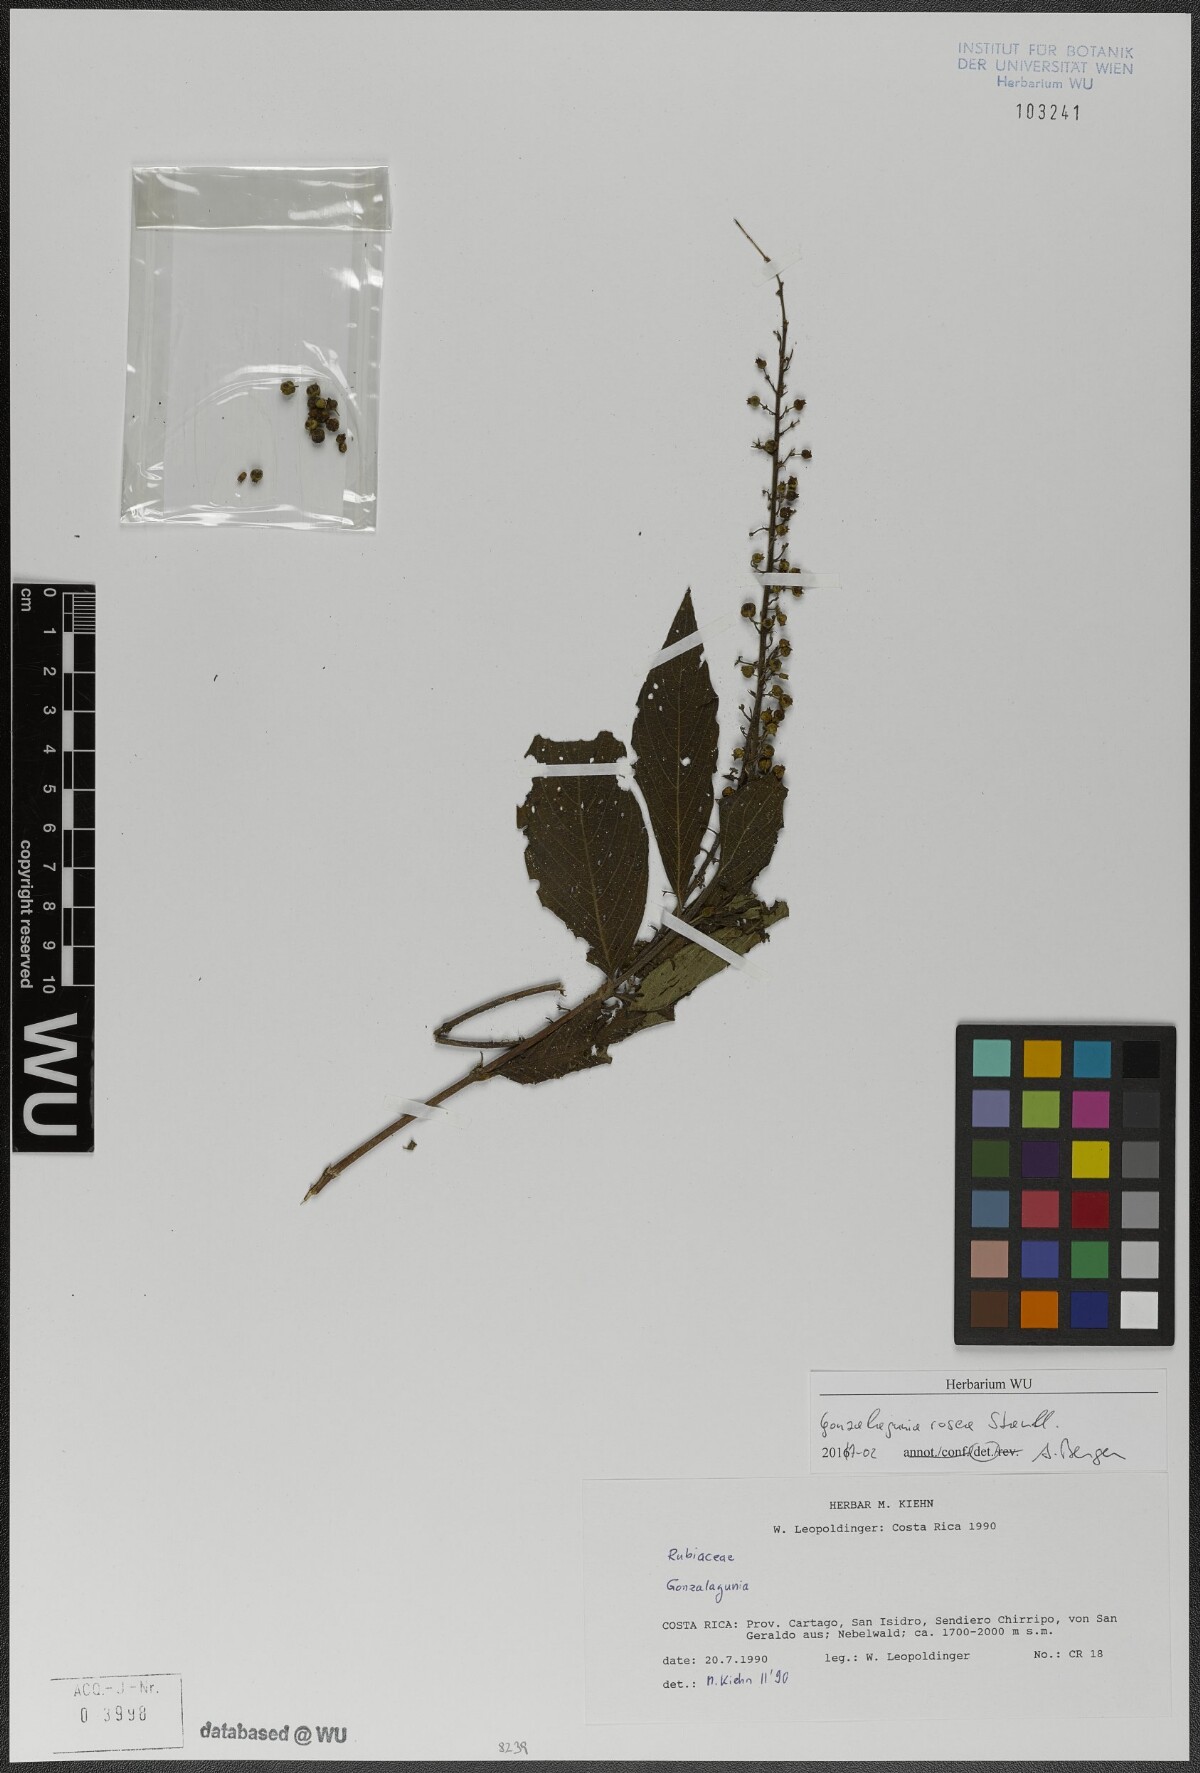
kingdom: Plantae
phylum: Tracheophyta
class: Magnoliopsida
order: Gentianales
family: Rubiaceae
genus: Gonzalagunia
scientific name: Gonzalagunia rosea
